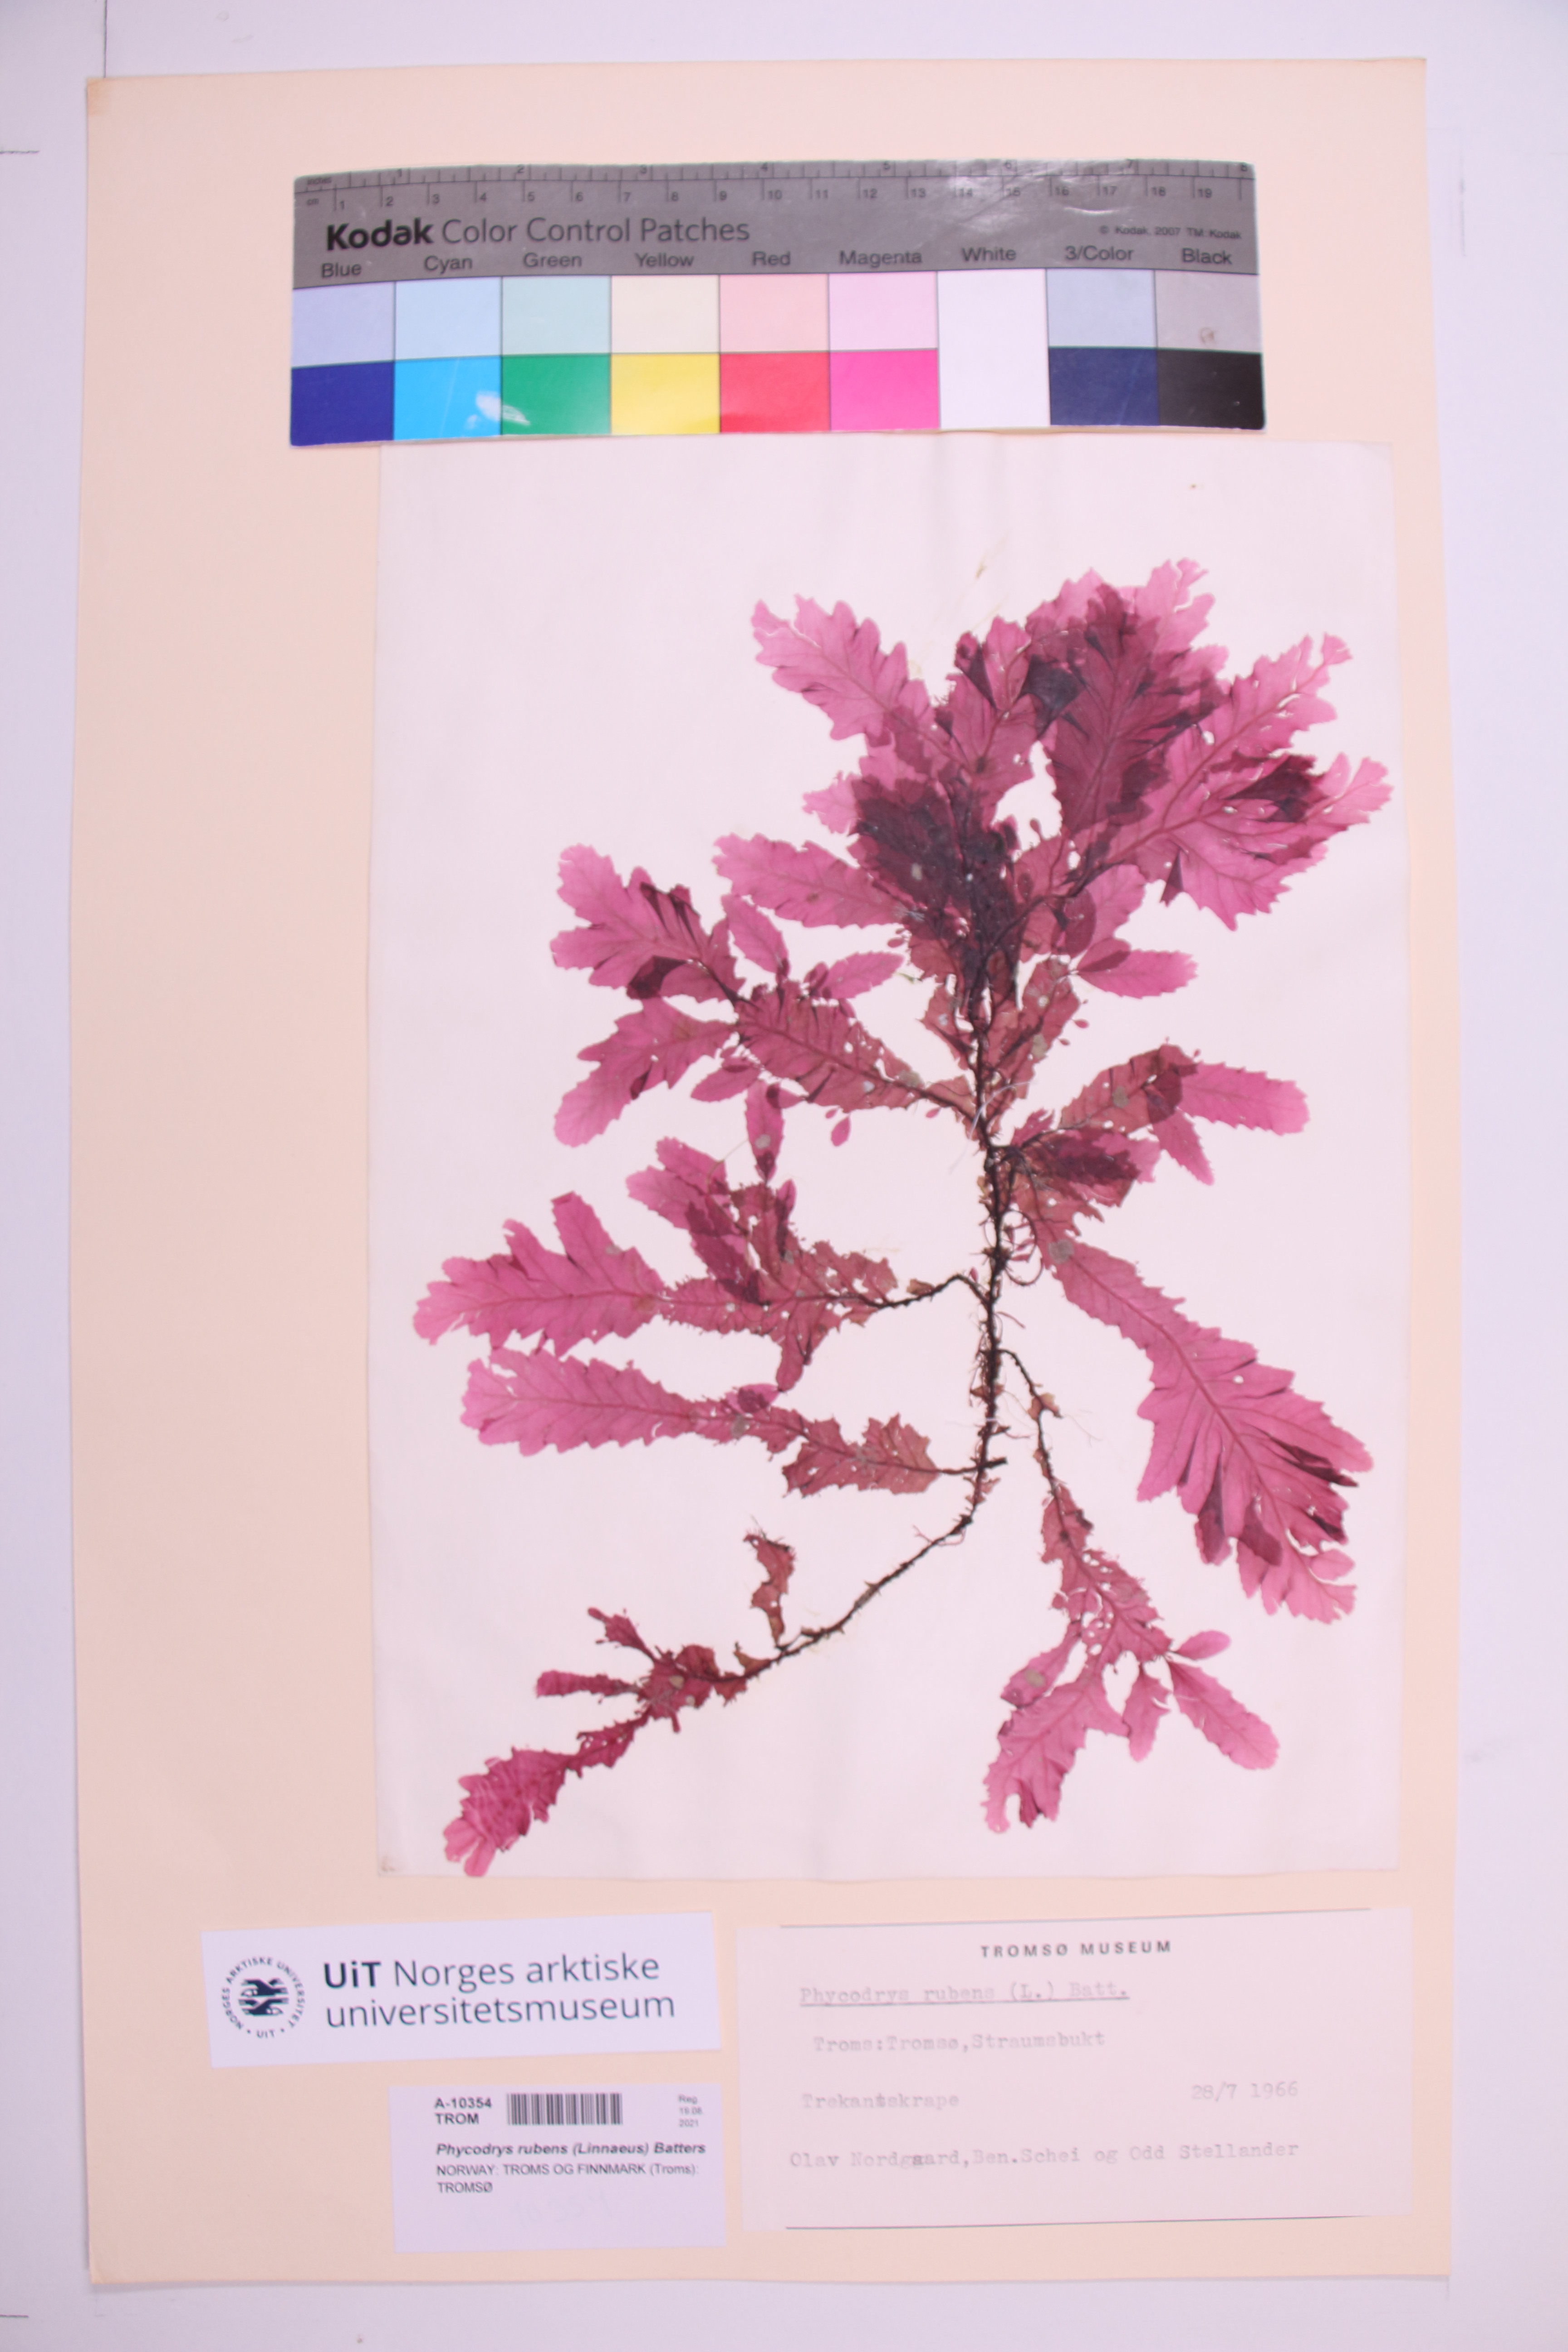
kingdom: Plantae
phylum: Rhodophyta
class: Florideophyceae
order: Ceramiales
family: Delesseriaceae
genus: Phycodrys
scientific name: Phycodrys rubens
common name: Sea oak
